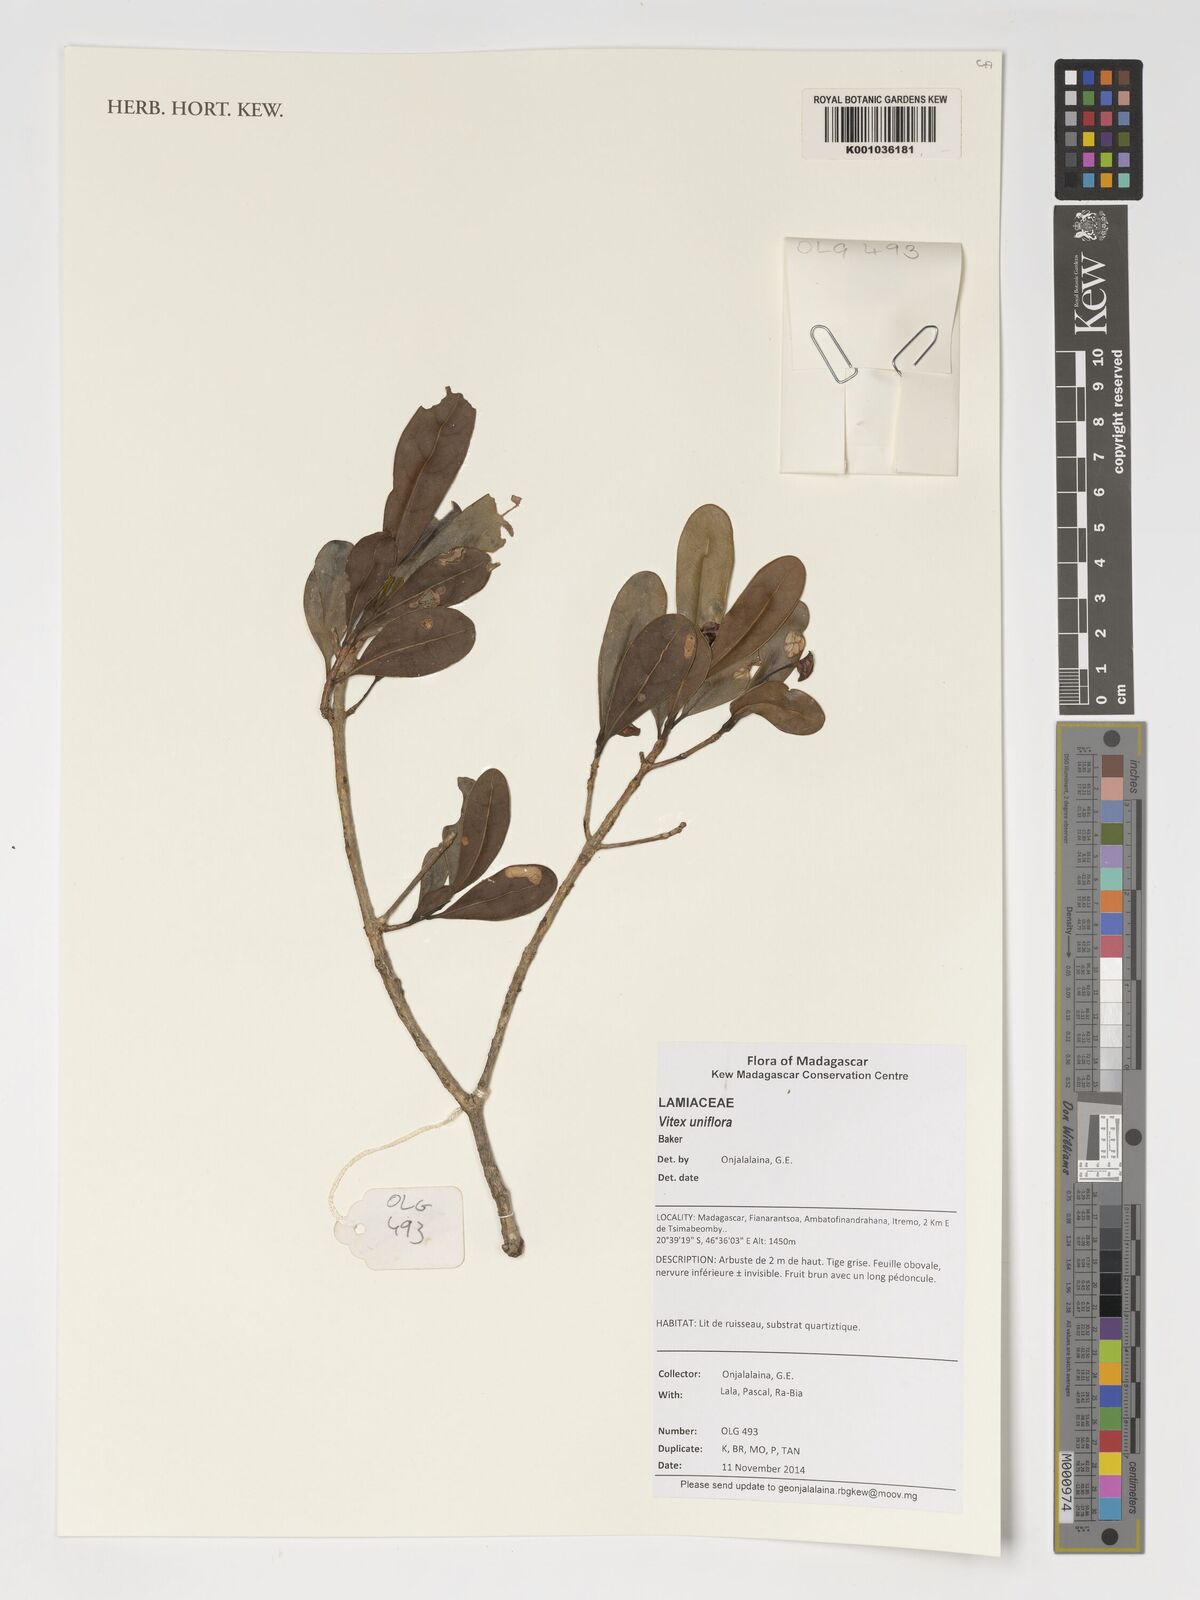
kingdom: Plantae
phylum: Tracheophyta
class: Magnoliopsida
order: Lamiales
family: Lamiaceae
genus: Vitex
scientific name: Vitex uniflora
